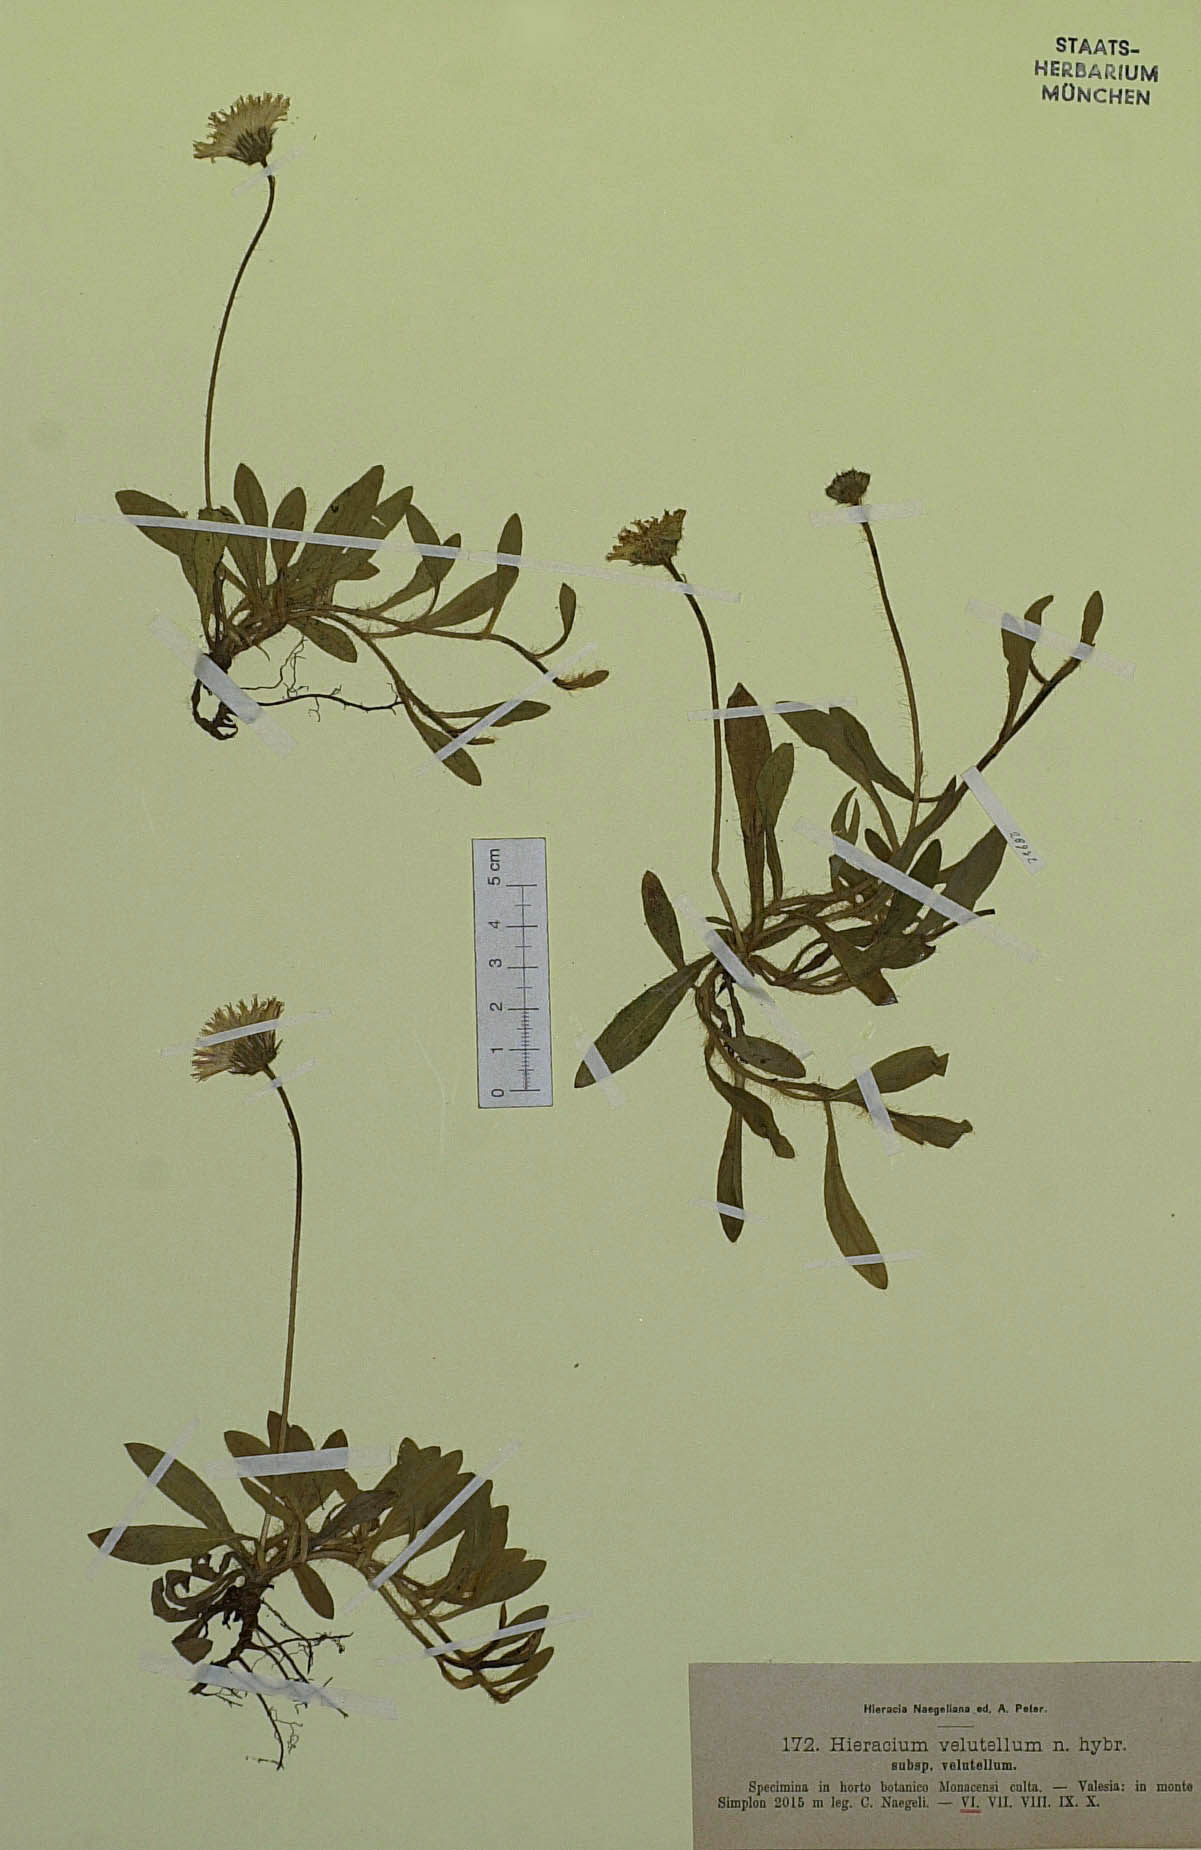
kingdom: Plantae
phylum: Tracheophyta
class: Magnoliopsida
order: Asterales
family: Asteraceae
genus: Pilosella
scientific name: Pilosella hypoleuca
